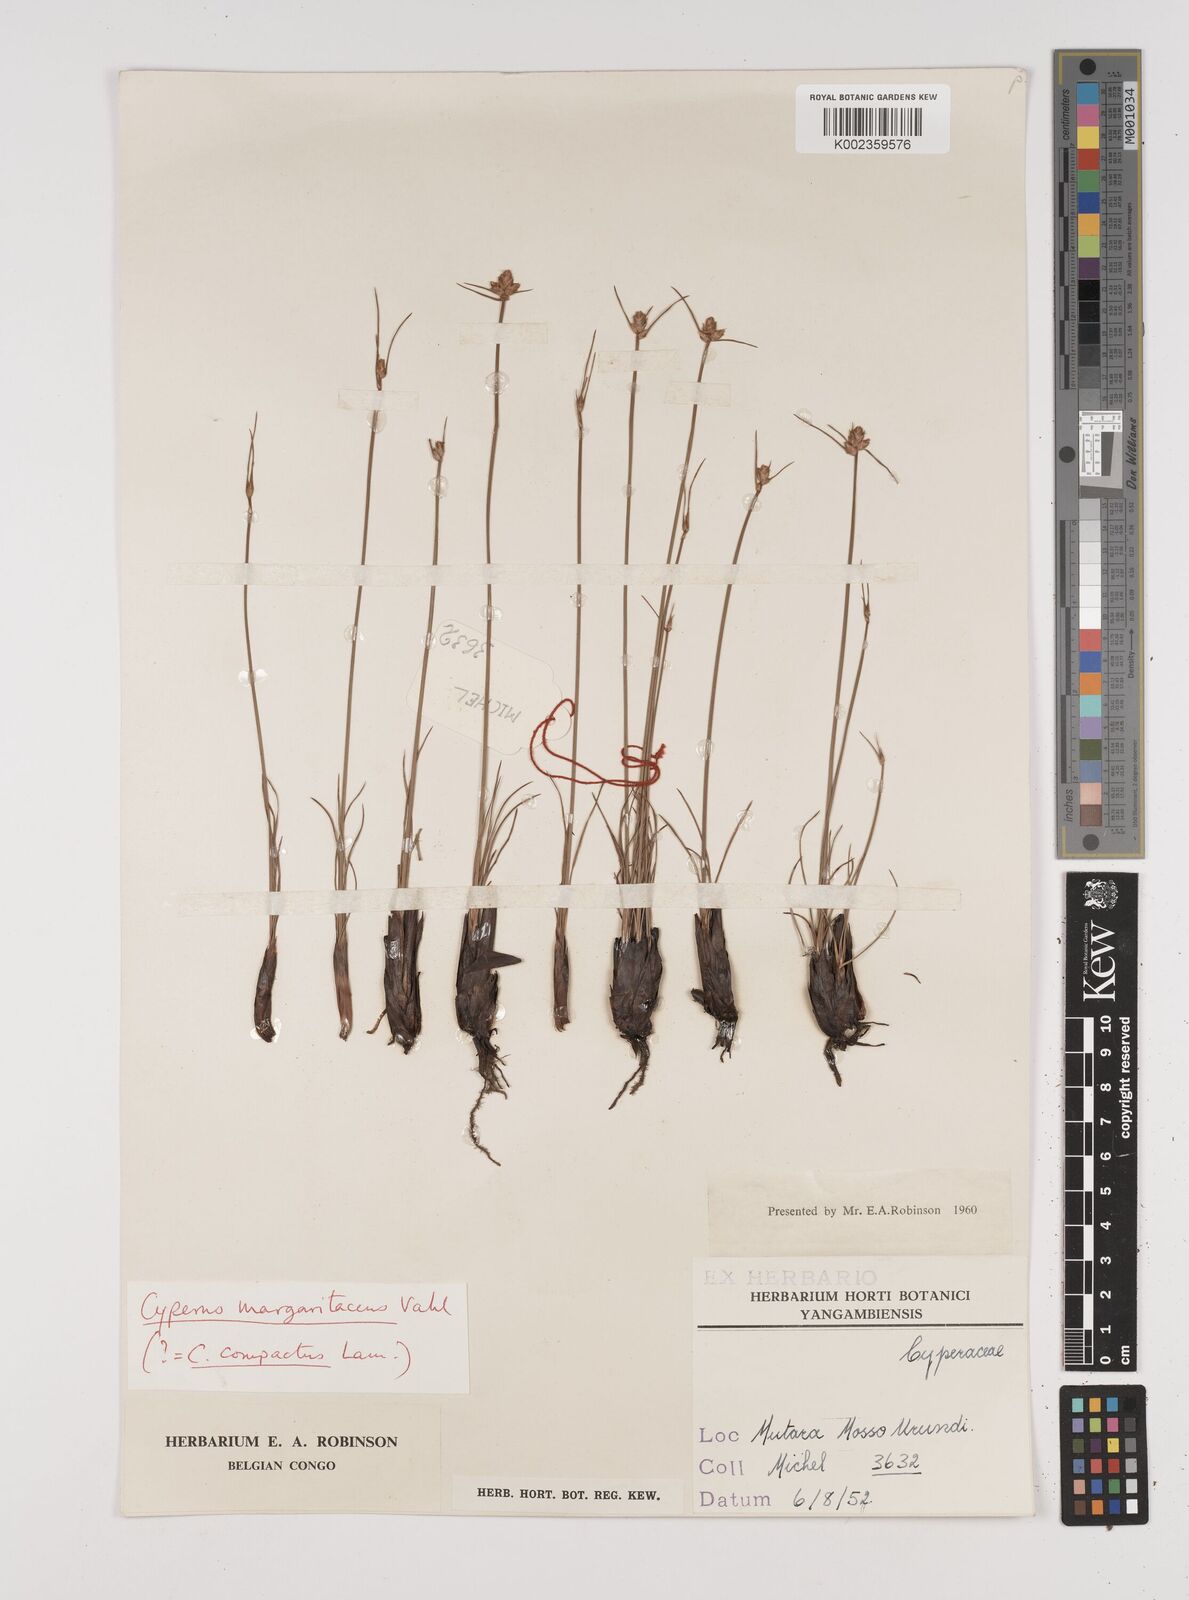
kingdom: Plantae
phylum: Tracheophyta
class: Liliopsida
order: Poales
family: Cyperaceae
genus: Cyperus
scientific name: Cyperus nduru
